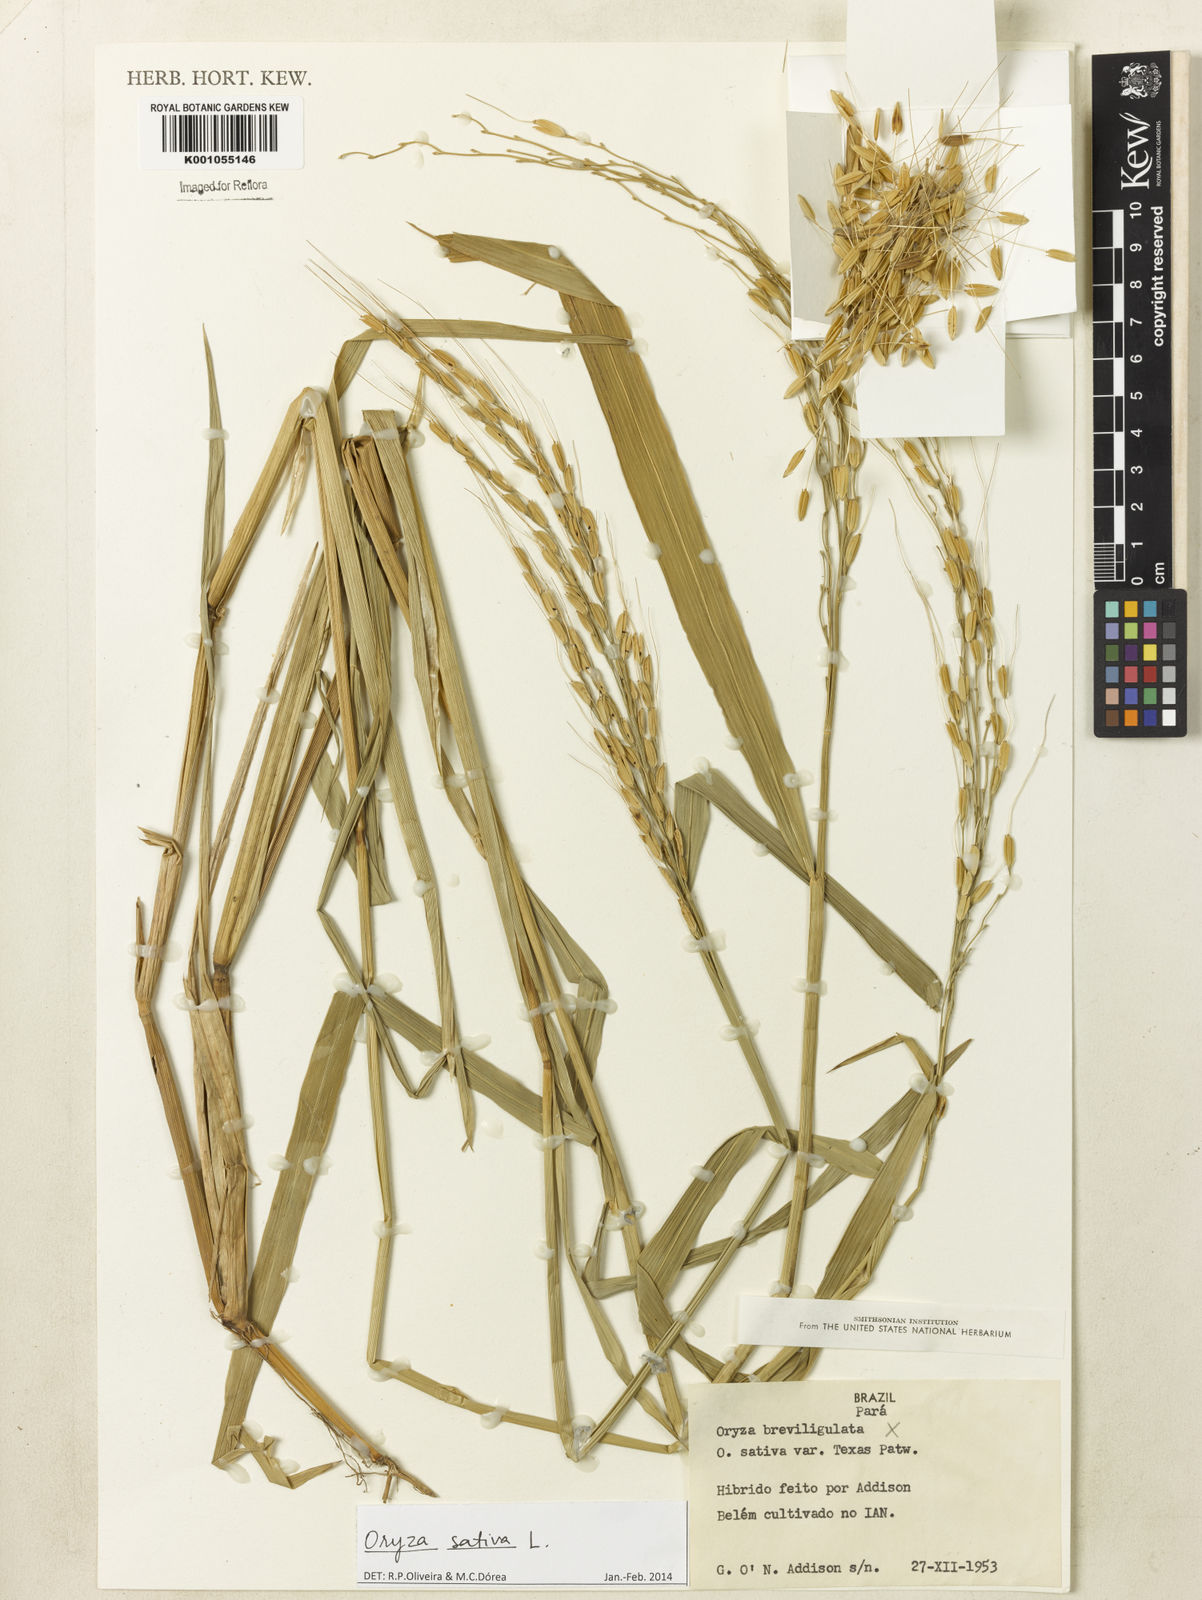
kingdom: Plantae
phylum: Tracheophyta
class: Liliopsida
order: Poales
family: Poaceae
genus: Oryza
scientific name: Oryza sativa
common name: Rice
